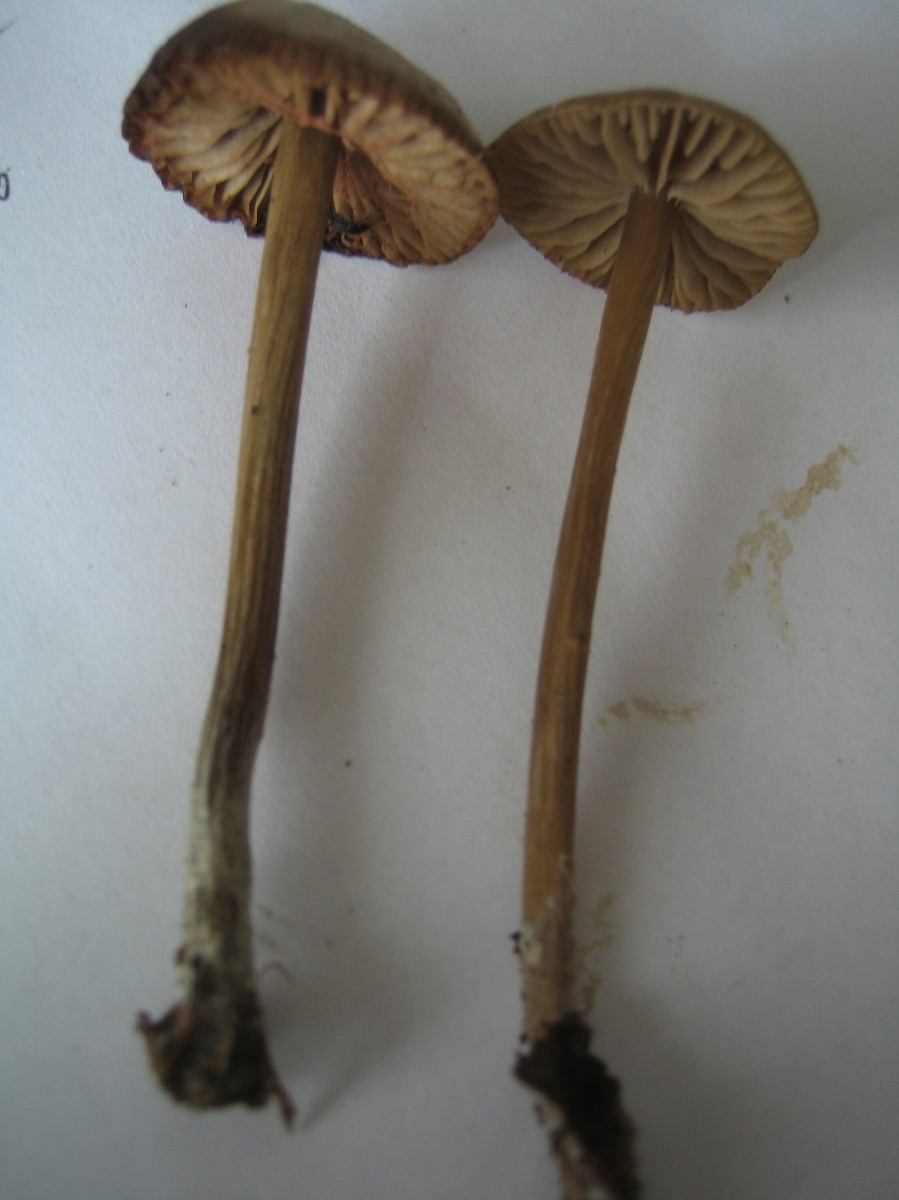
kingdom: Fungi
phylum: Basidiomycota
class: Agaricomycetes
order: Agaricales
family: Entolomataceae
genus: Entoloma
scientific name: Entoloma
